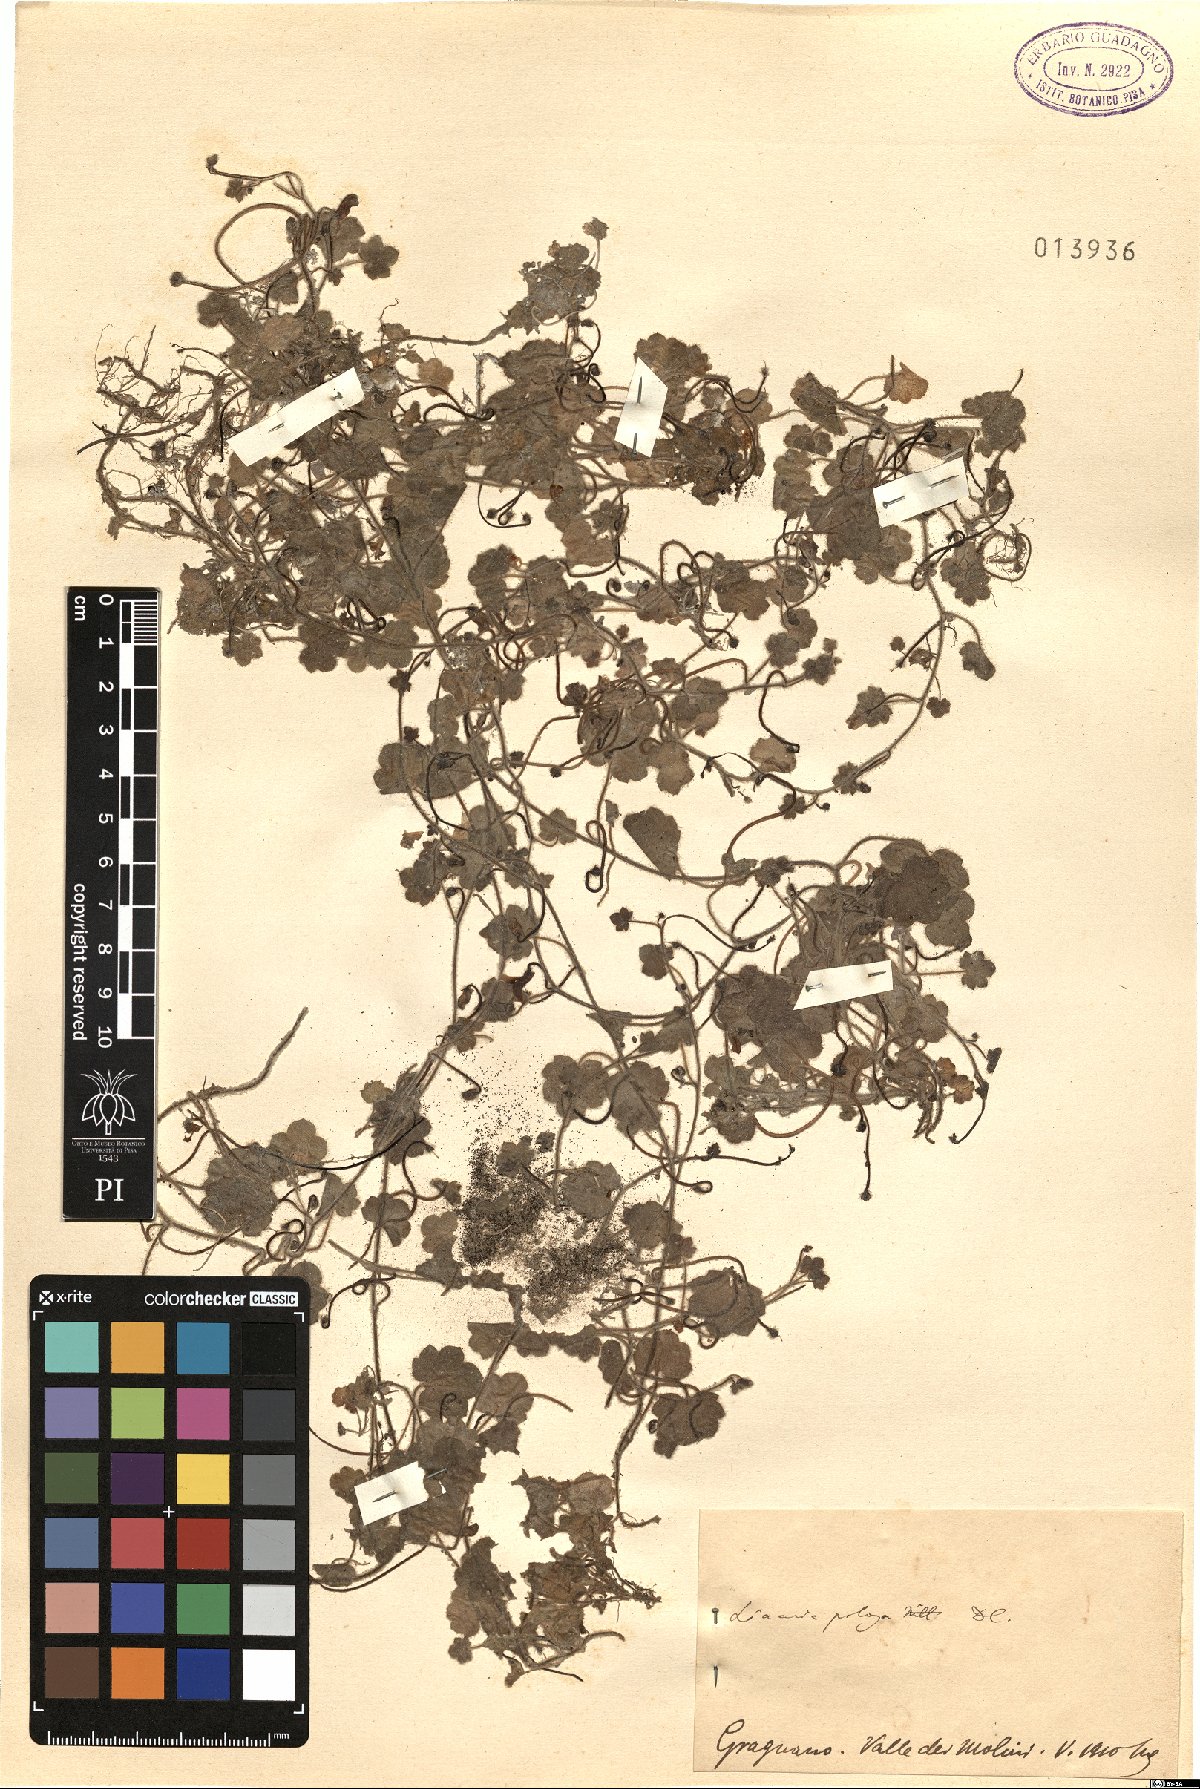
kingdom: Plantae
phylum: Tracheophyta
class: Magnoliopsida
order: Lamiales
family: Plantaginaceae
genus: Sibthorpia
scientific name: Sibthorpia europaea
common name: Cornish moneywort
